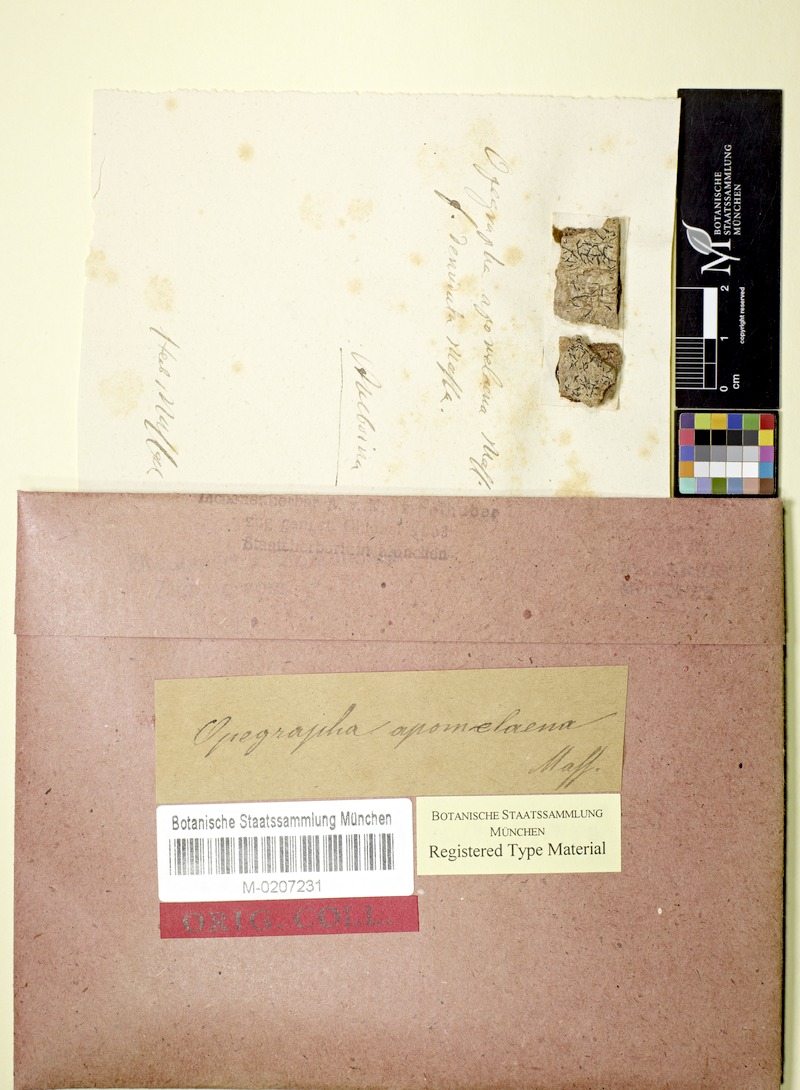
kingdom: Fungi
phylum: Ascomycota
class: Arthoniomycetes
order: Arthoniales
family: Lecanographaceae
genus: Alyxoria
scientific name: Alyxoria apomelaena
